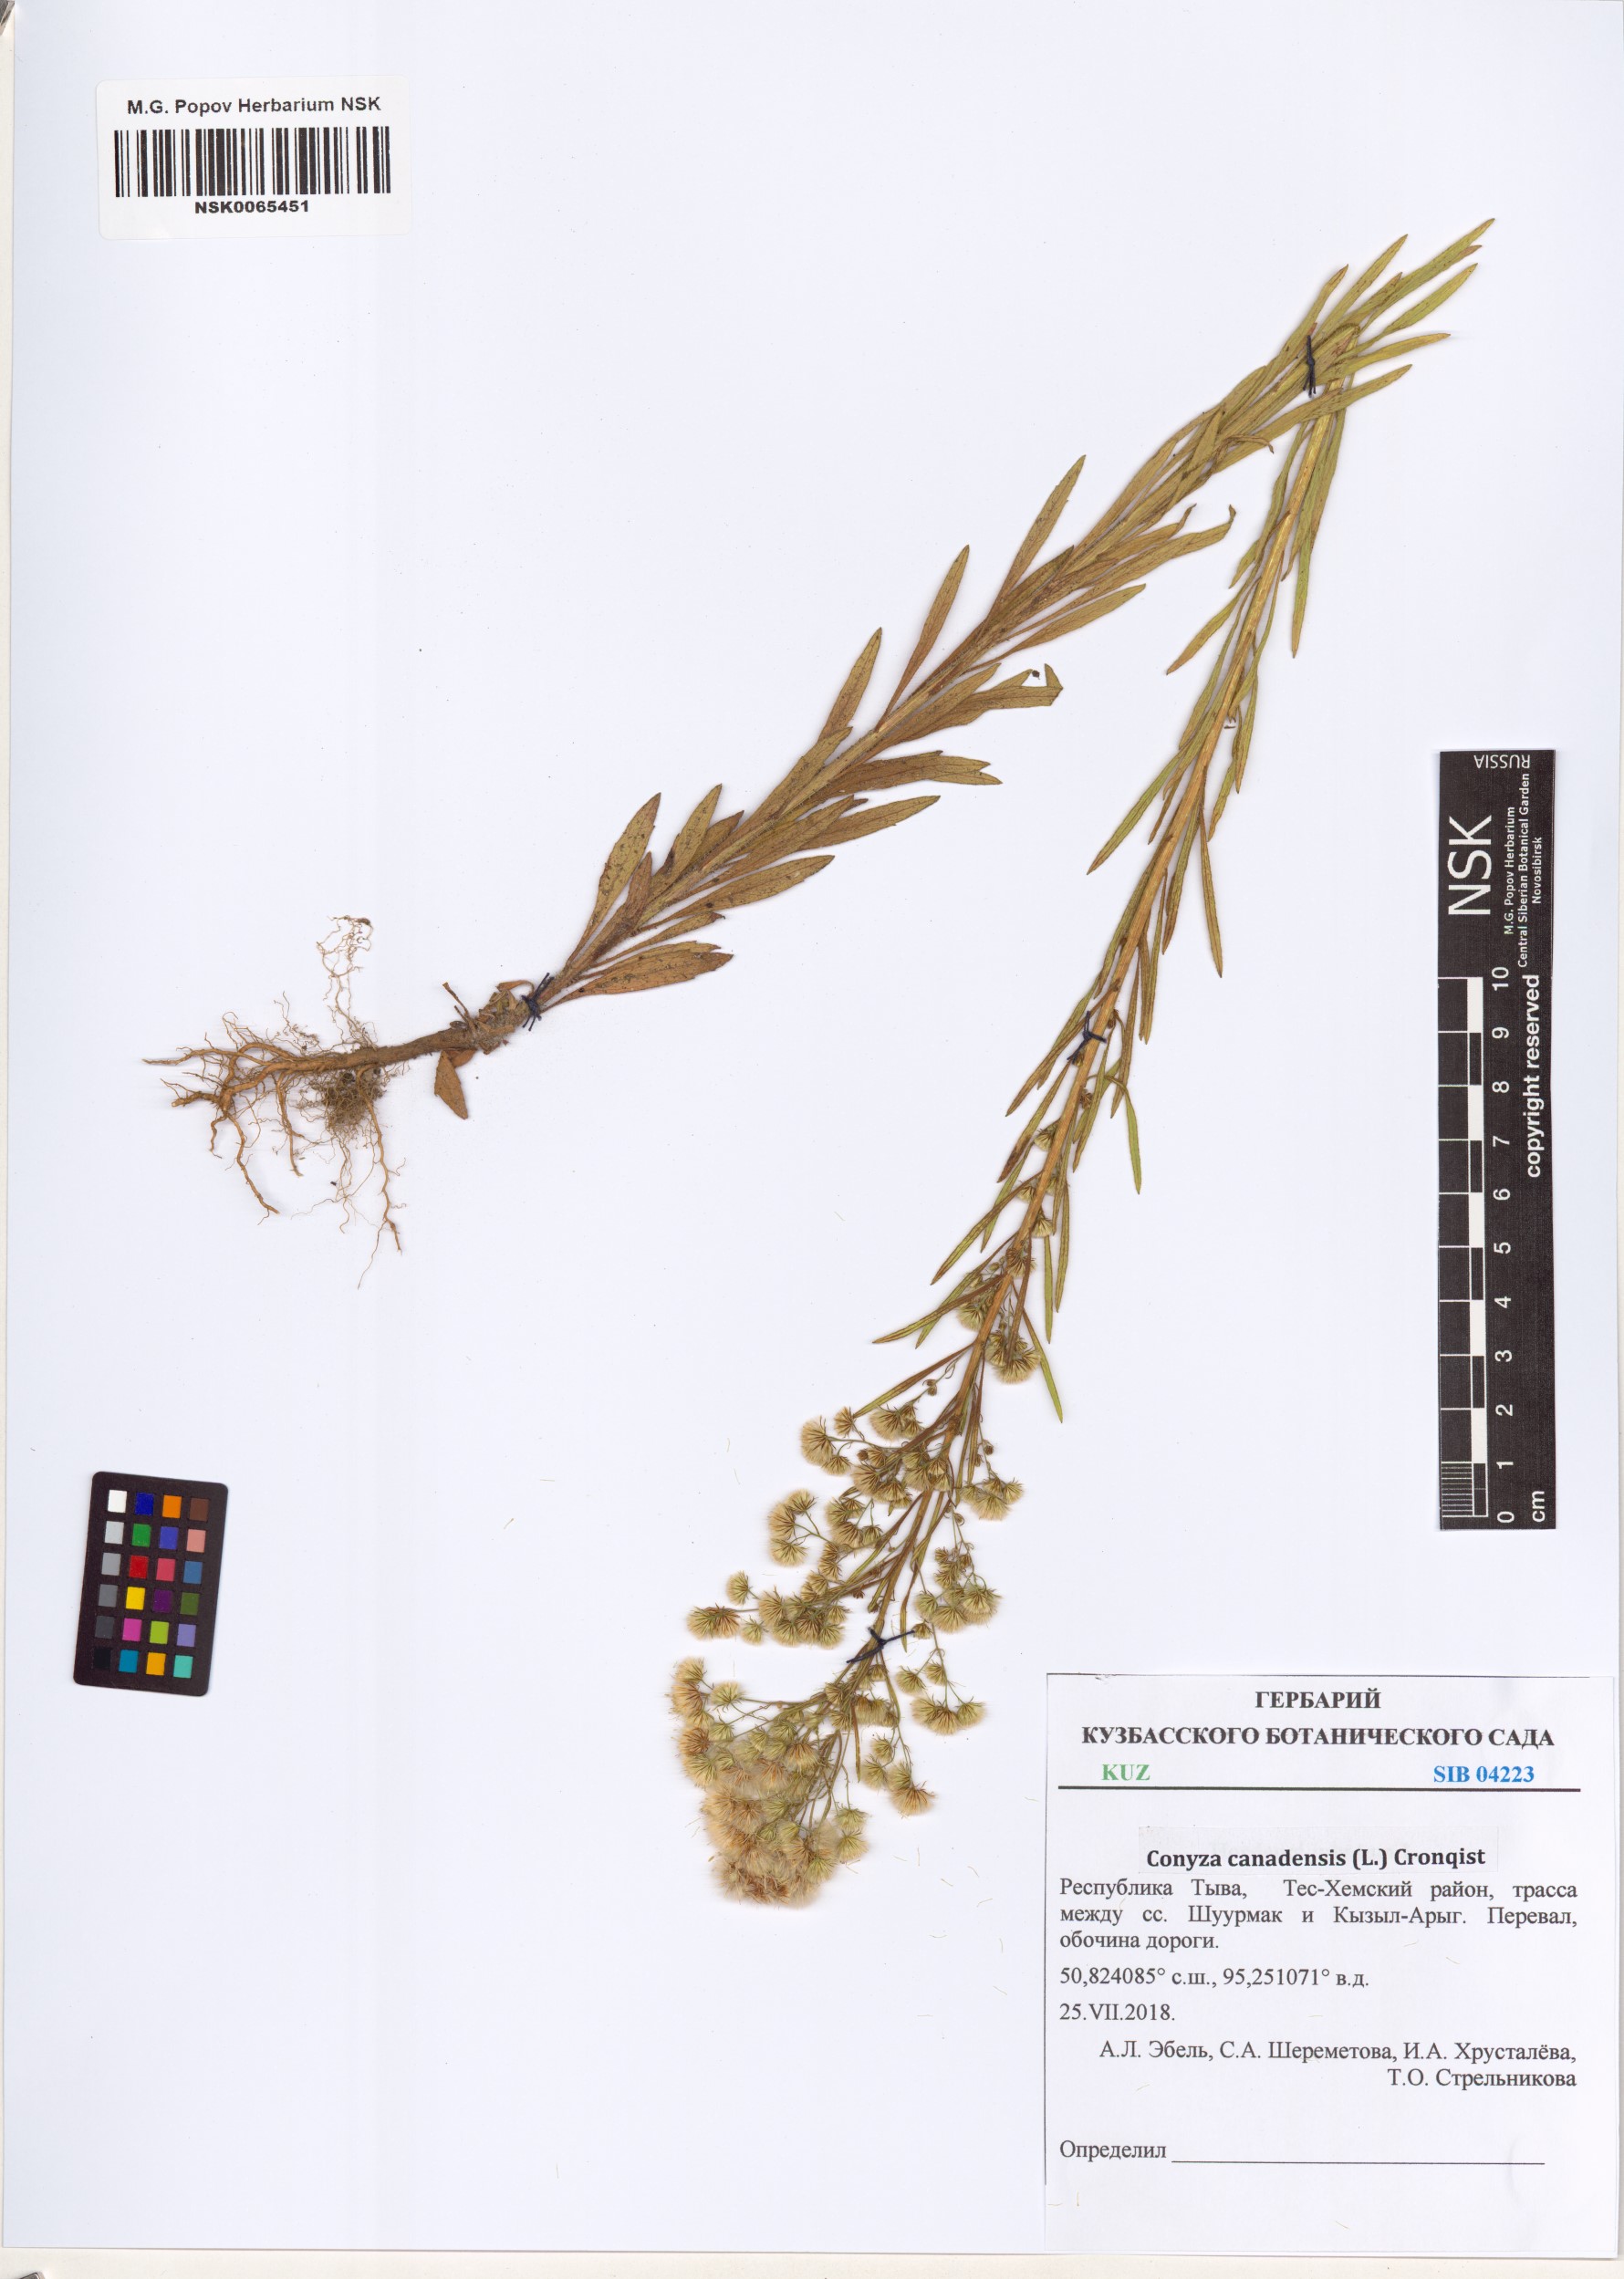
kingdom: Plantae
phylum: Tracheophyta
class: Magnoliopsida
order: Asterales
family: Asteraceae
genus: Erigeron
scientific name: Erigeron canadensis
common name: Canadian fleabane
